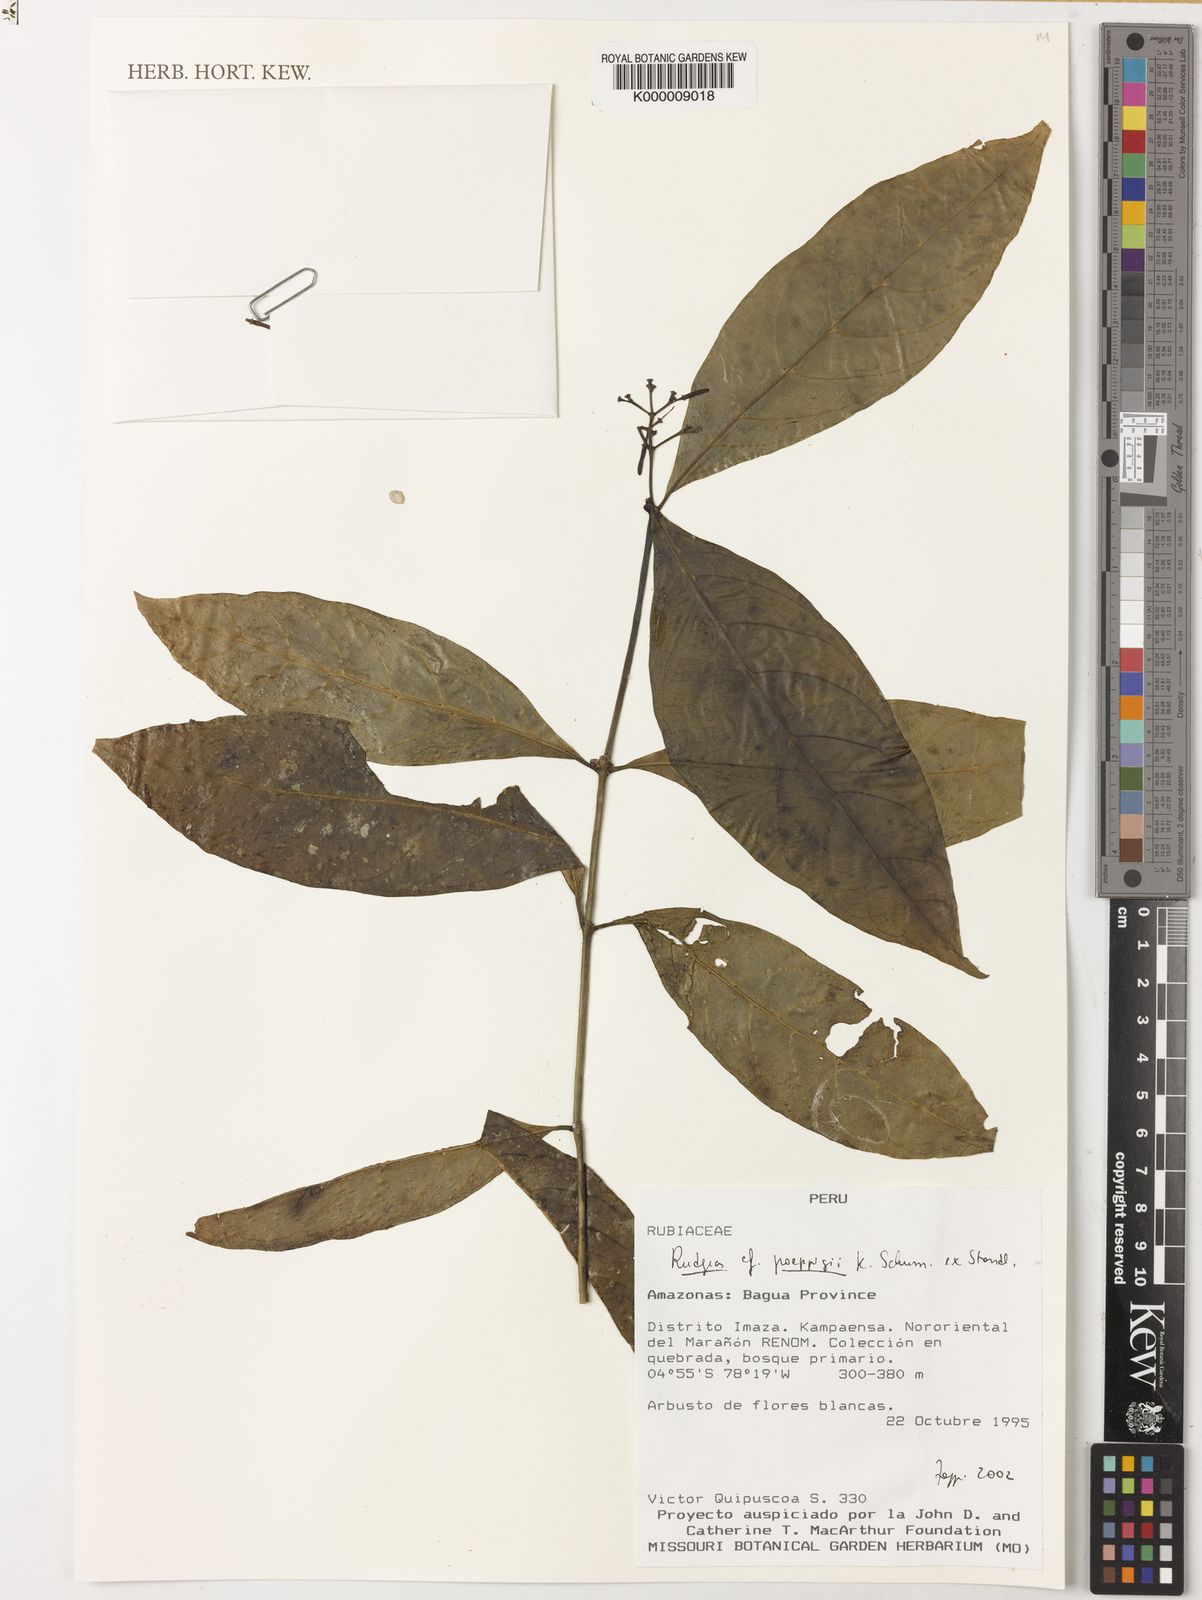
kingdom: Plantae
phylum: Tracheophyta
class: Magnoliopsida
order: Gentianales
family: Rubiaceae
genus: Rudgea
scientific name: Rudgea poeppigii
